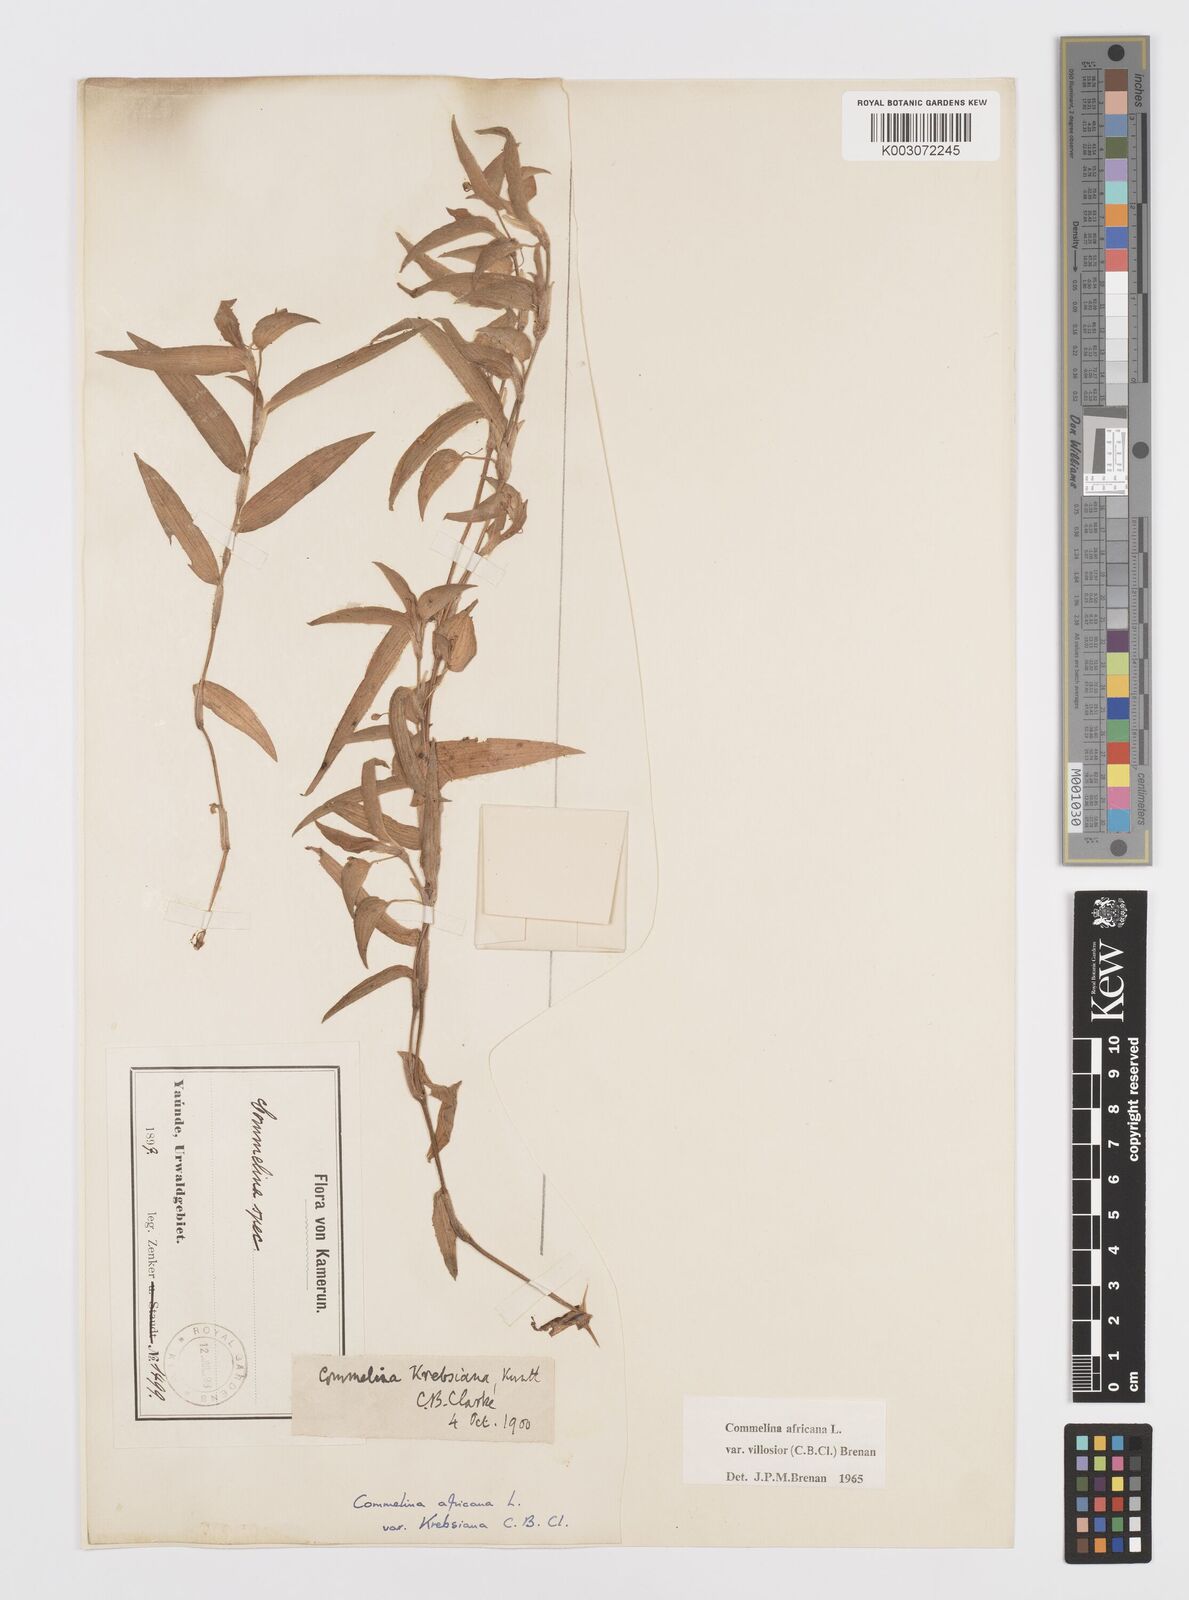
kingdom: Plantae
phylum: Tracheophyta
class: Liliopsida
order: Commelinales
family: Commelinaceae
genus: Commelina
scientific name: Commelina africana
